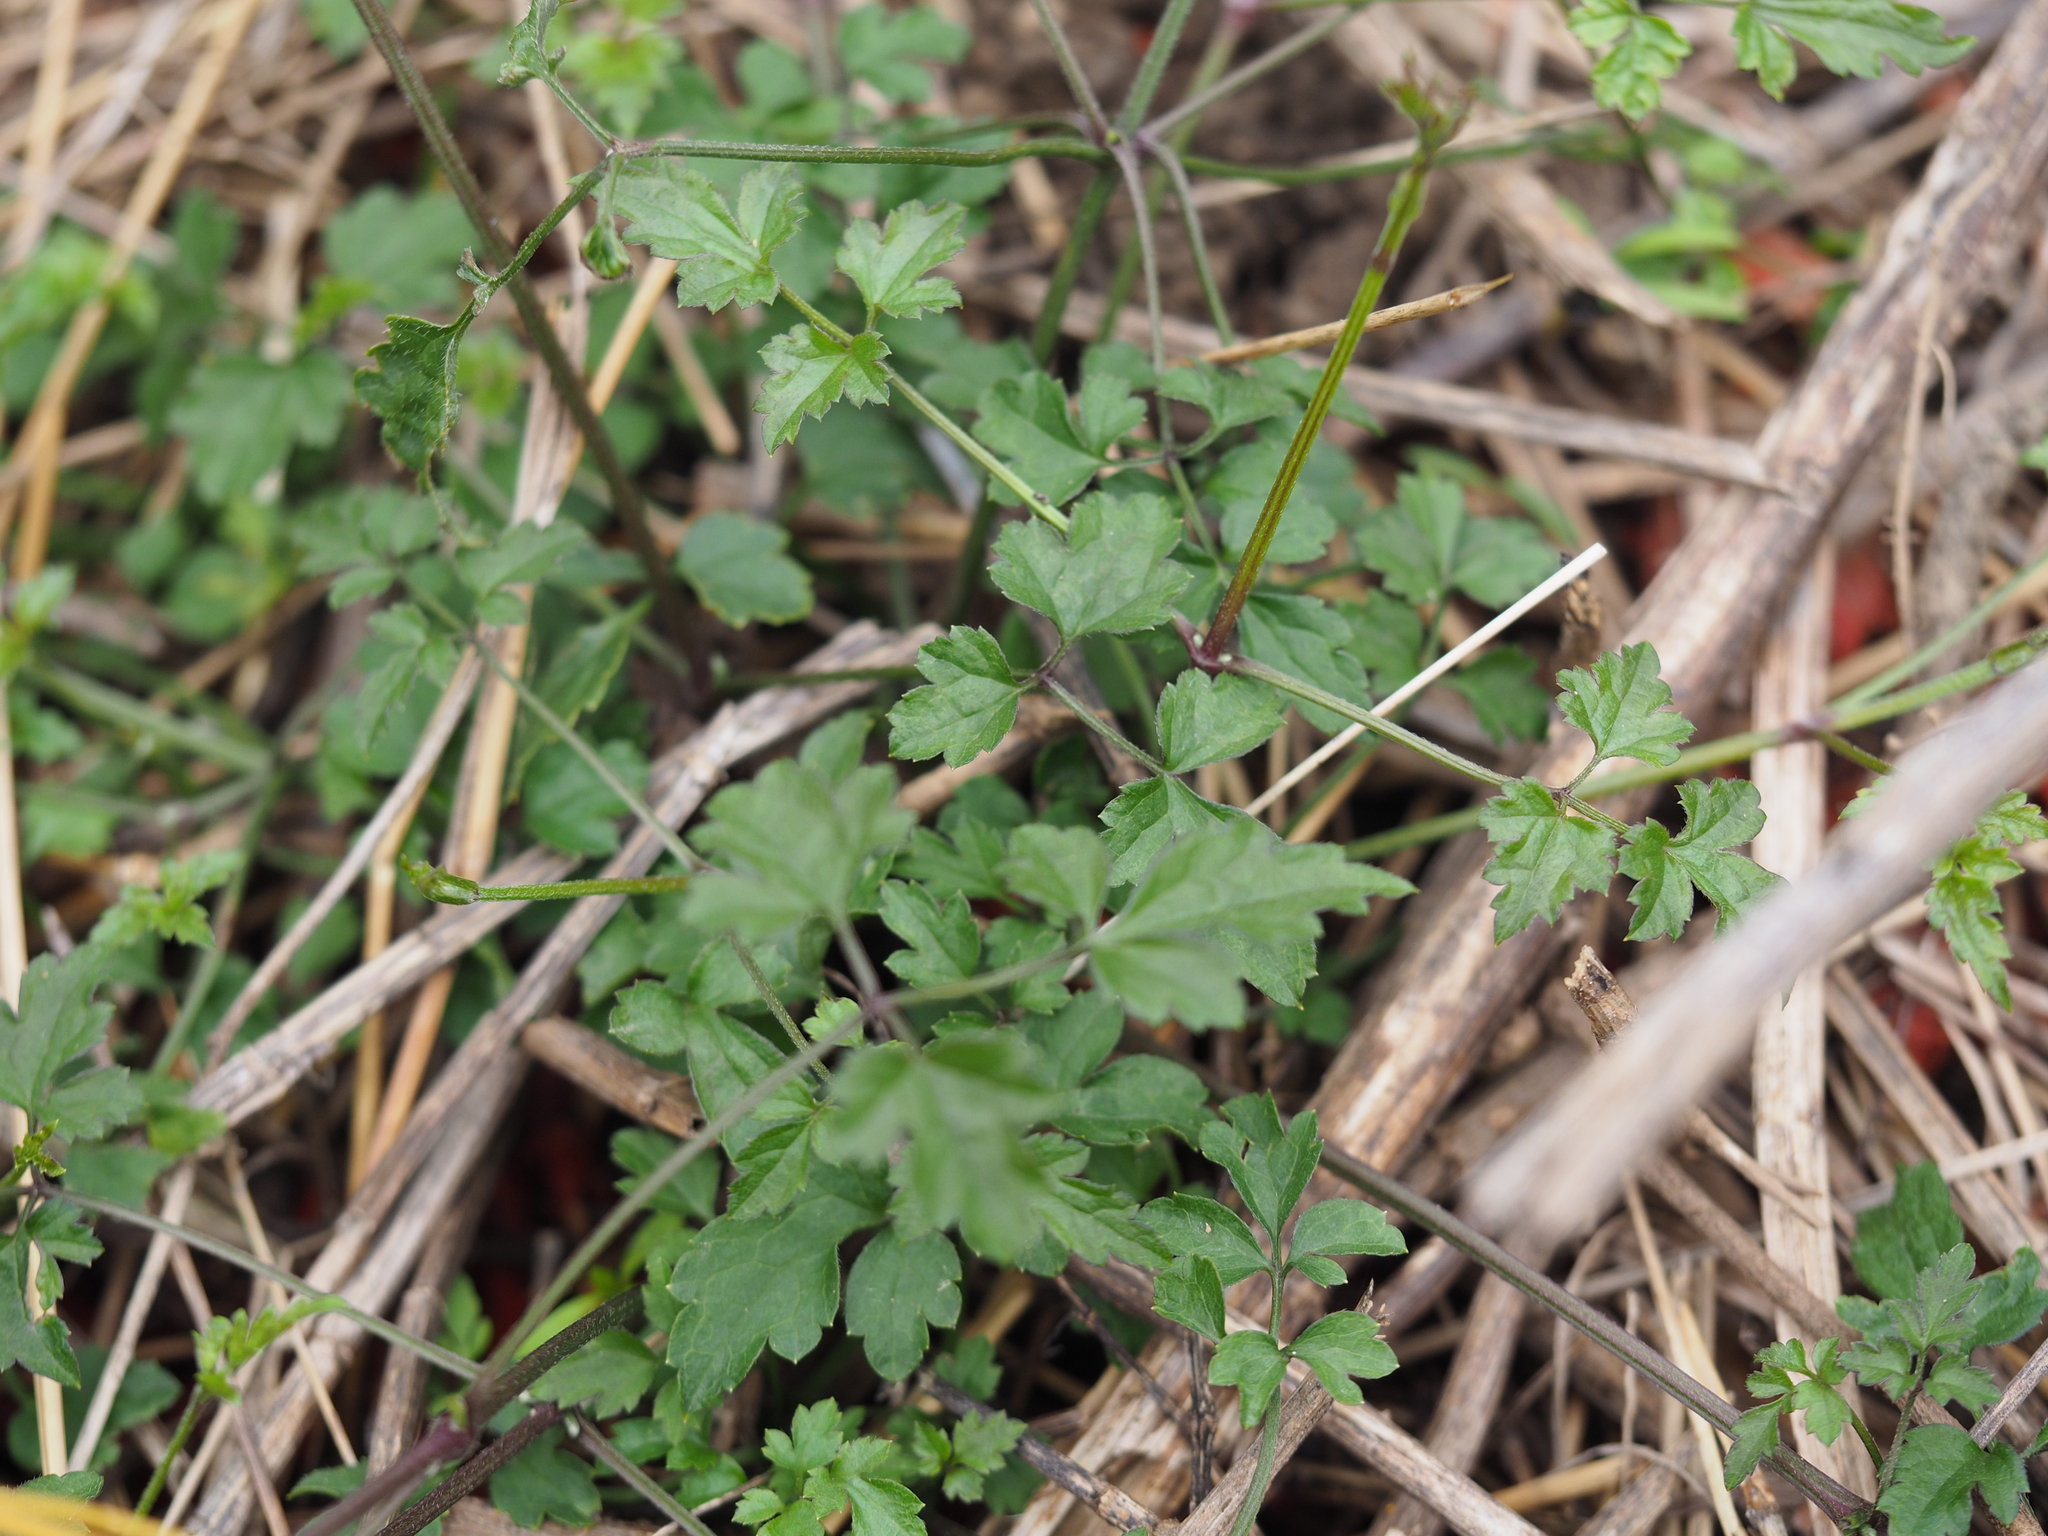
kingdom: Plantae
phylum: Tracheophyta
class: Magnoliopsida
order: Ranunculales
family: Ranunculaceae
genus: Clematis
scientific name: Clematis grata
